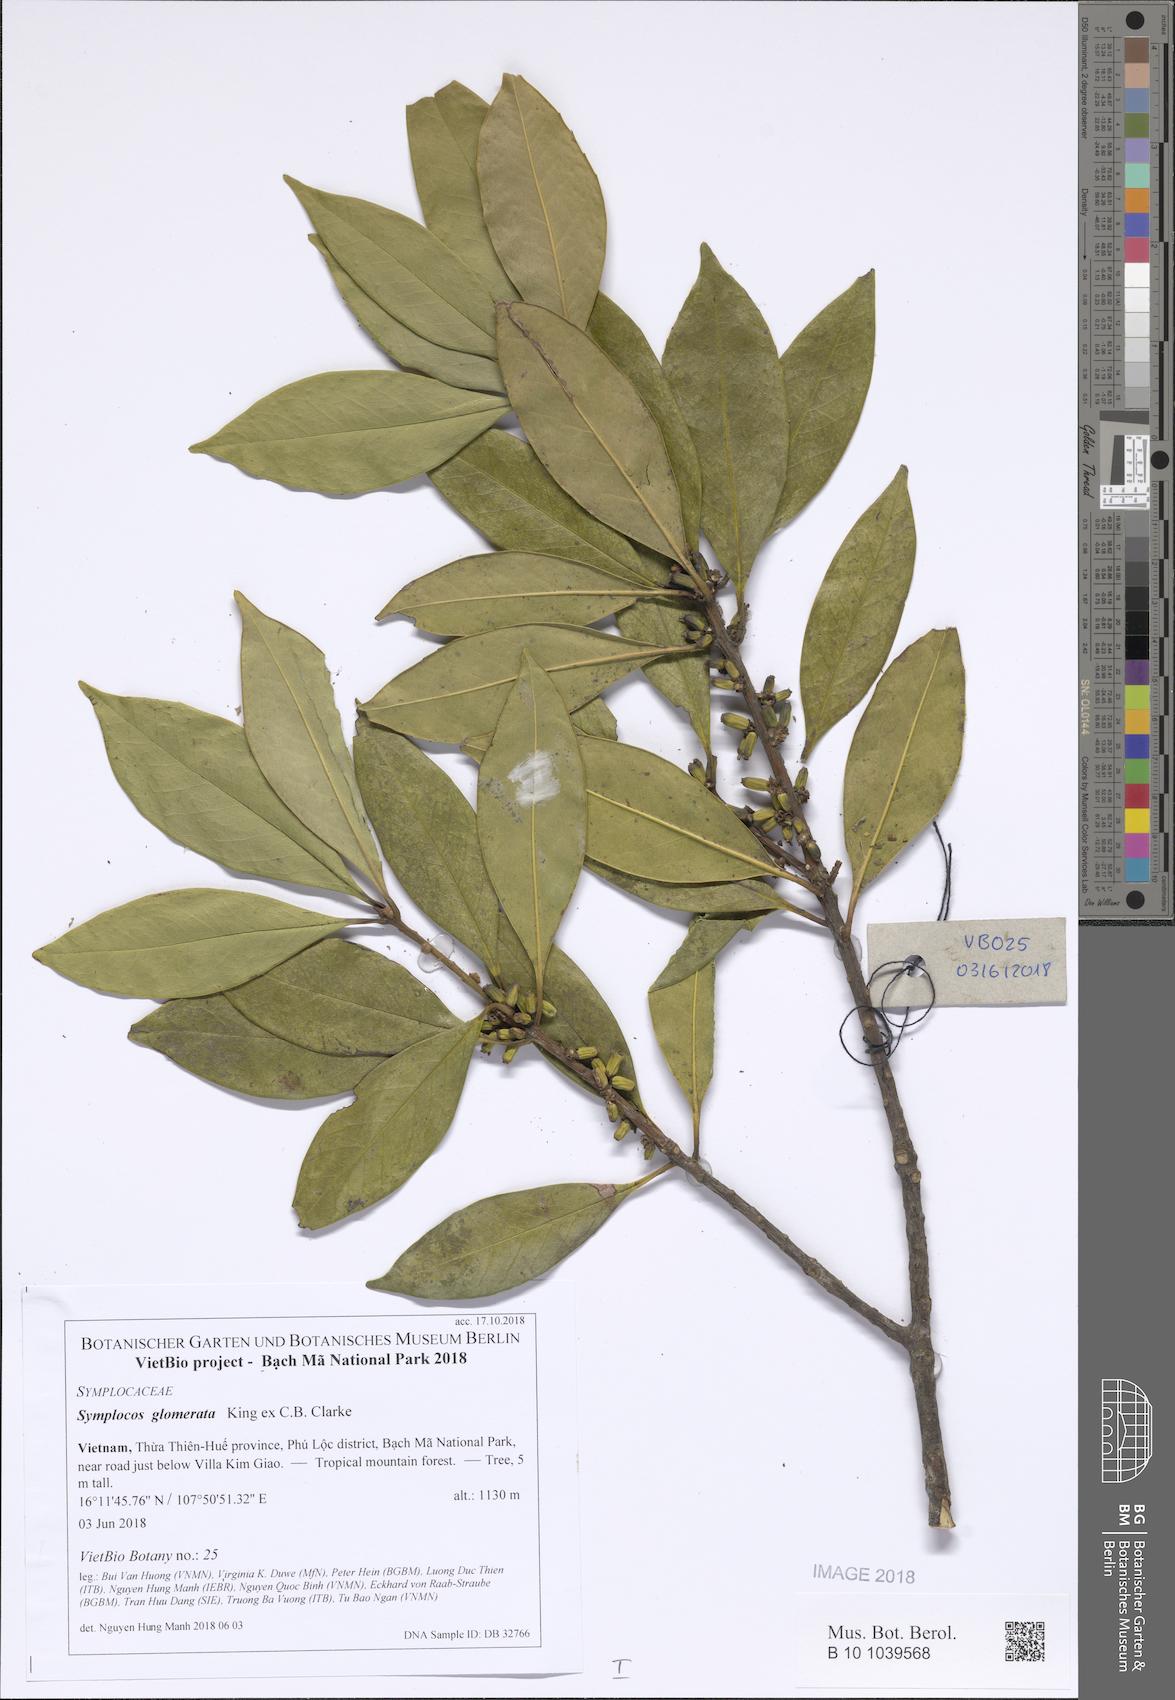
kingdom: Plantae
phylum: Tracheophyta
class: Magnoliopsida
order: Ericales
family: Symplocaceae
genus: Symplocos
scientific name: Symplocos glomerata
